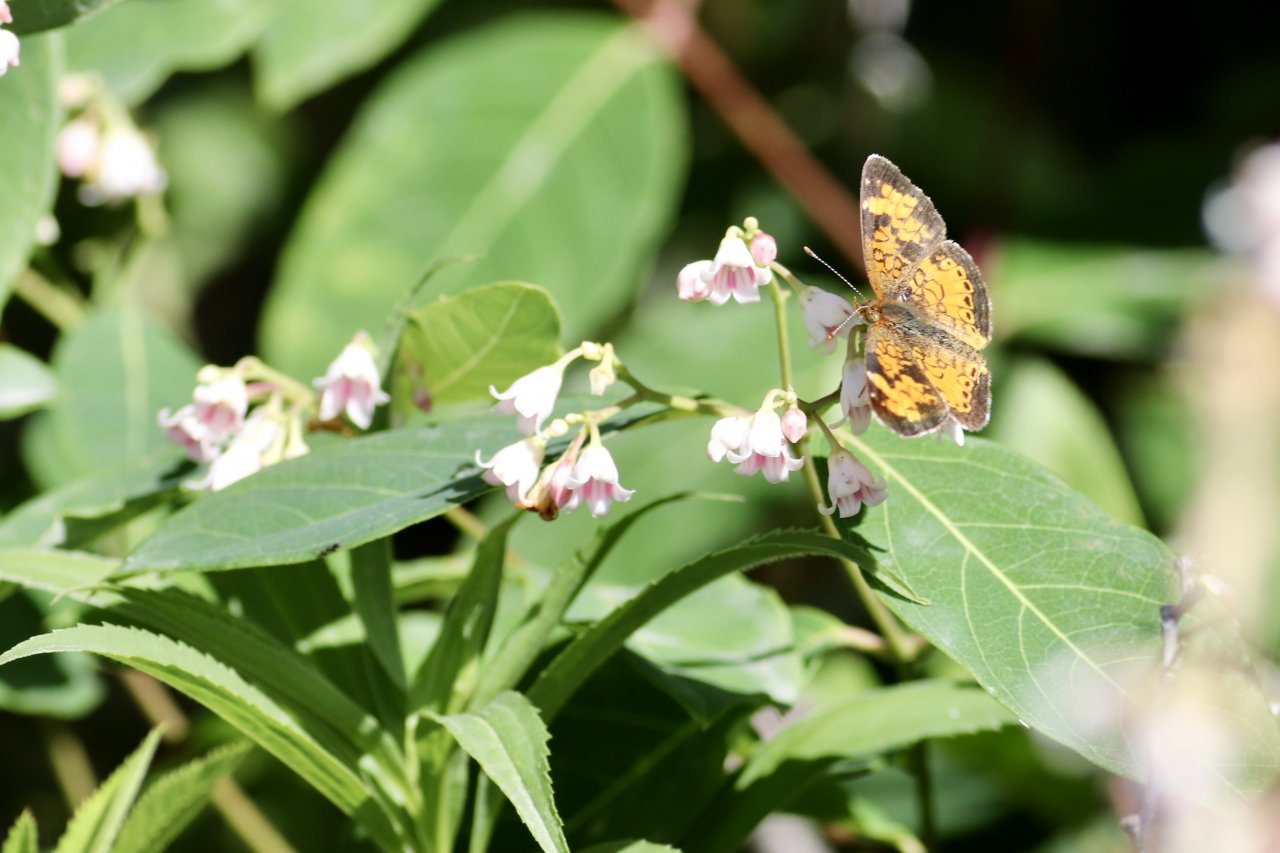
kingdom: Animalia
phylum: Arthropoda
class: Insecta
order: Lepidoptera
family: Nymphalidae
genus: Phyciodes
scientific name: Phyciodes tharos
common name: Northern Crescent
